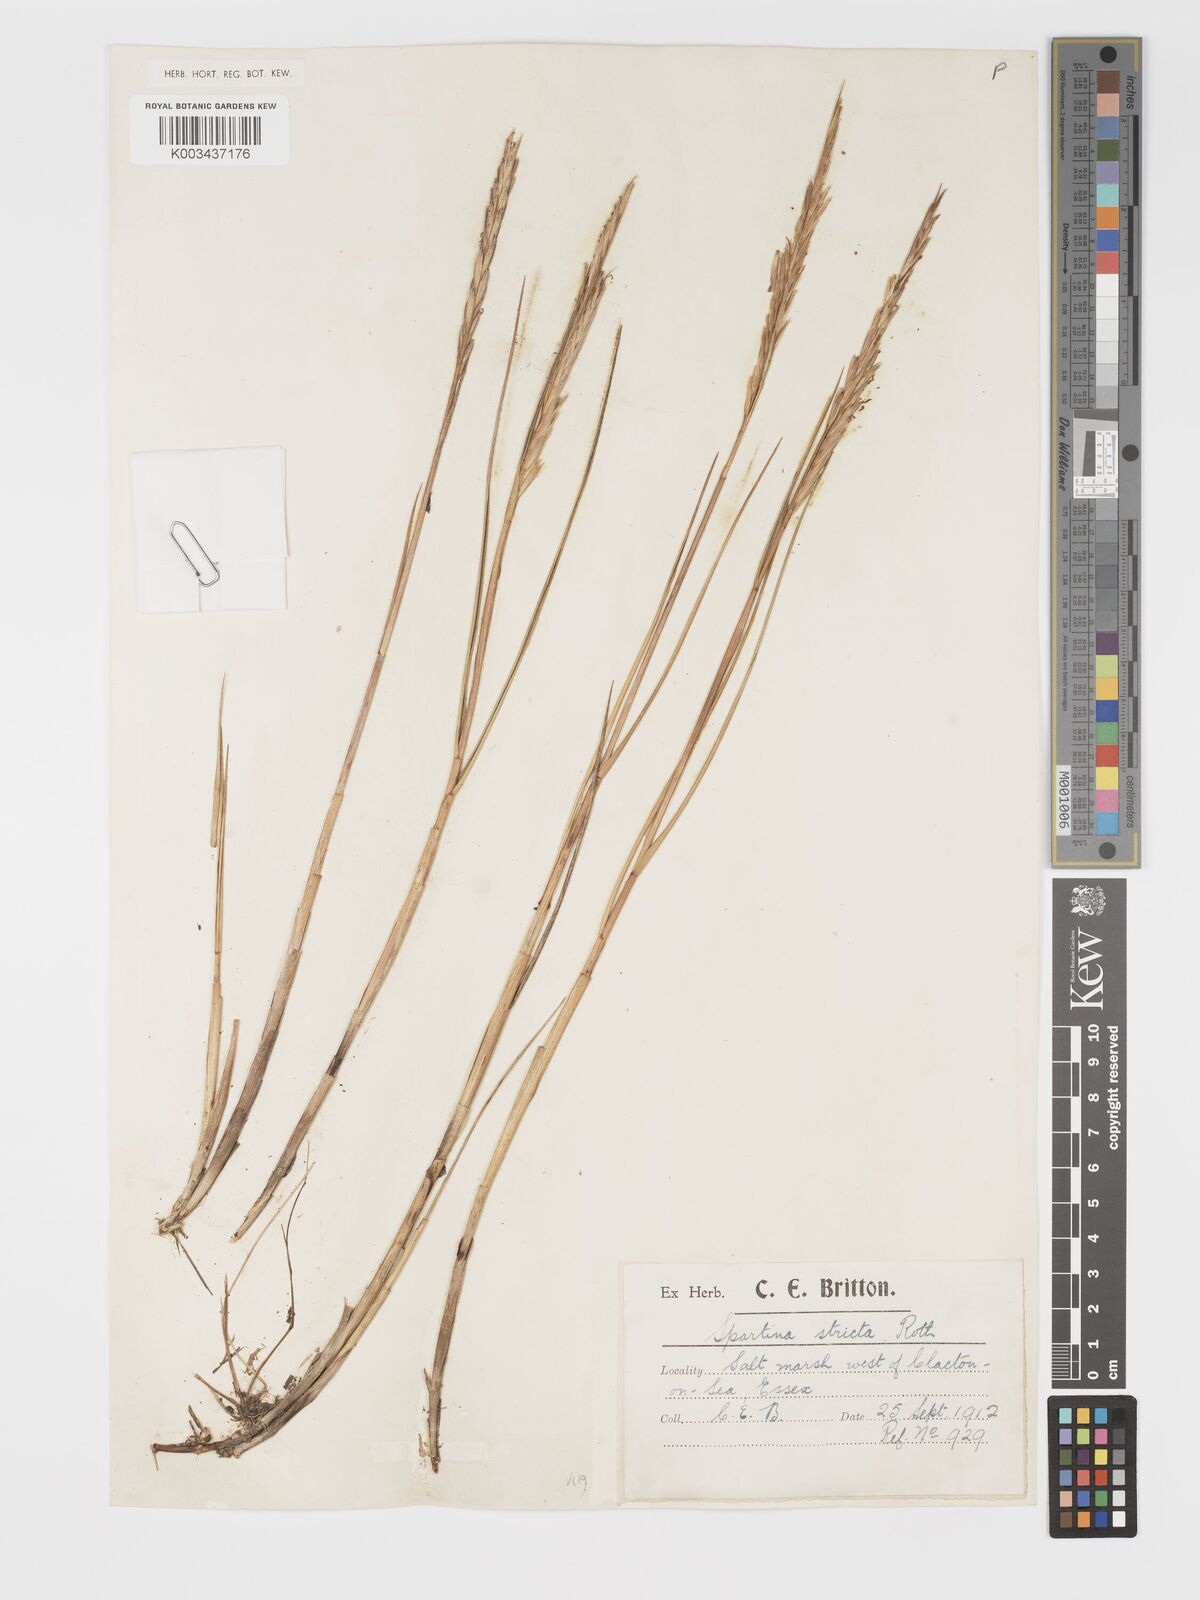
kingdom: Plantae
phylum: Tracheophyta
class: Liliopsida
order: Poales
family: Poaceae
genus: Sporobolus
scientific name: Sporobolus maritimus
